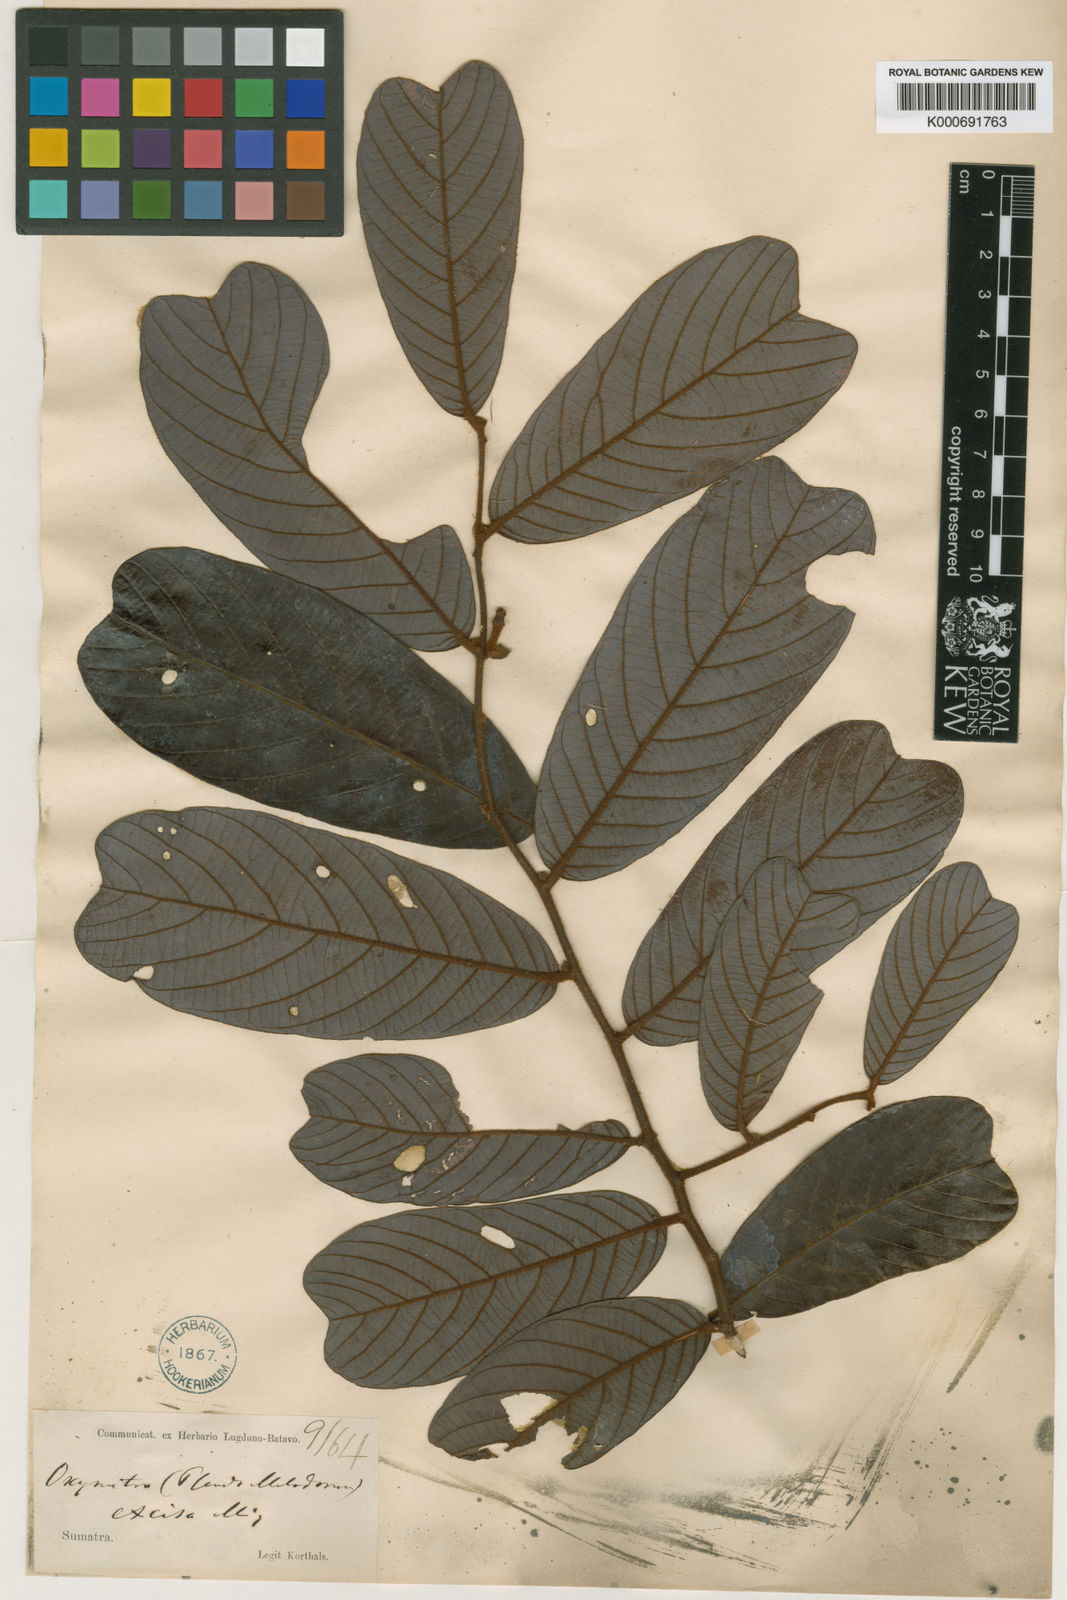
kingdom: Plantae
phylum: Tracheophyta
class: Magnoliopsida
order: Magnoliales
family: Annonaceae
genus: Friesodielsia
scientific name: Friesodielsia excisa
